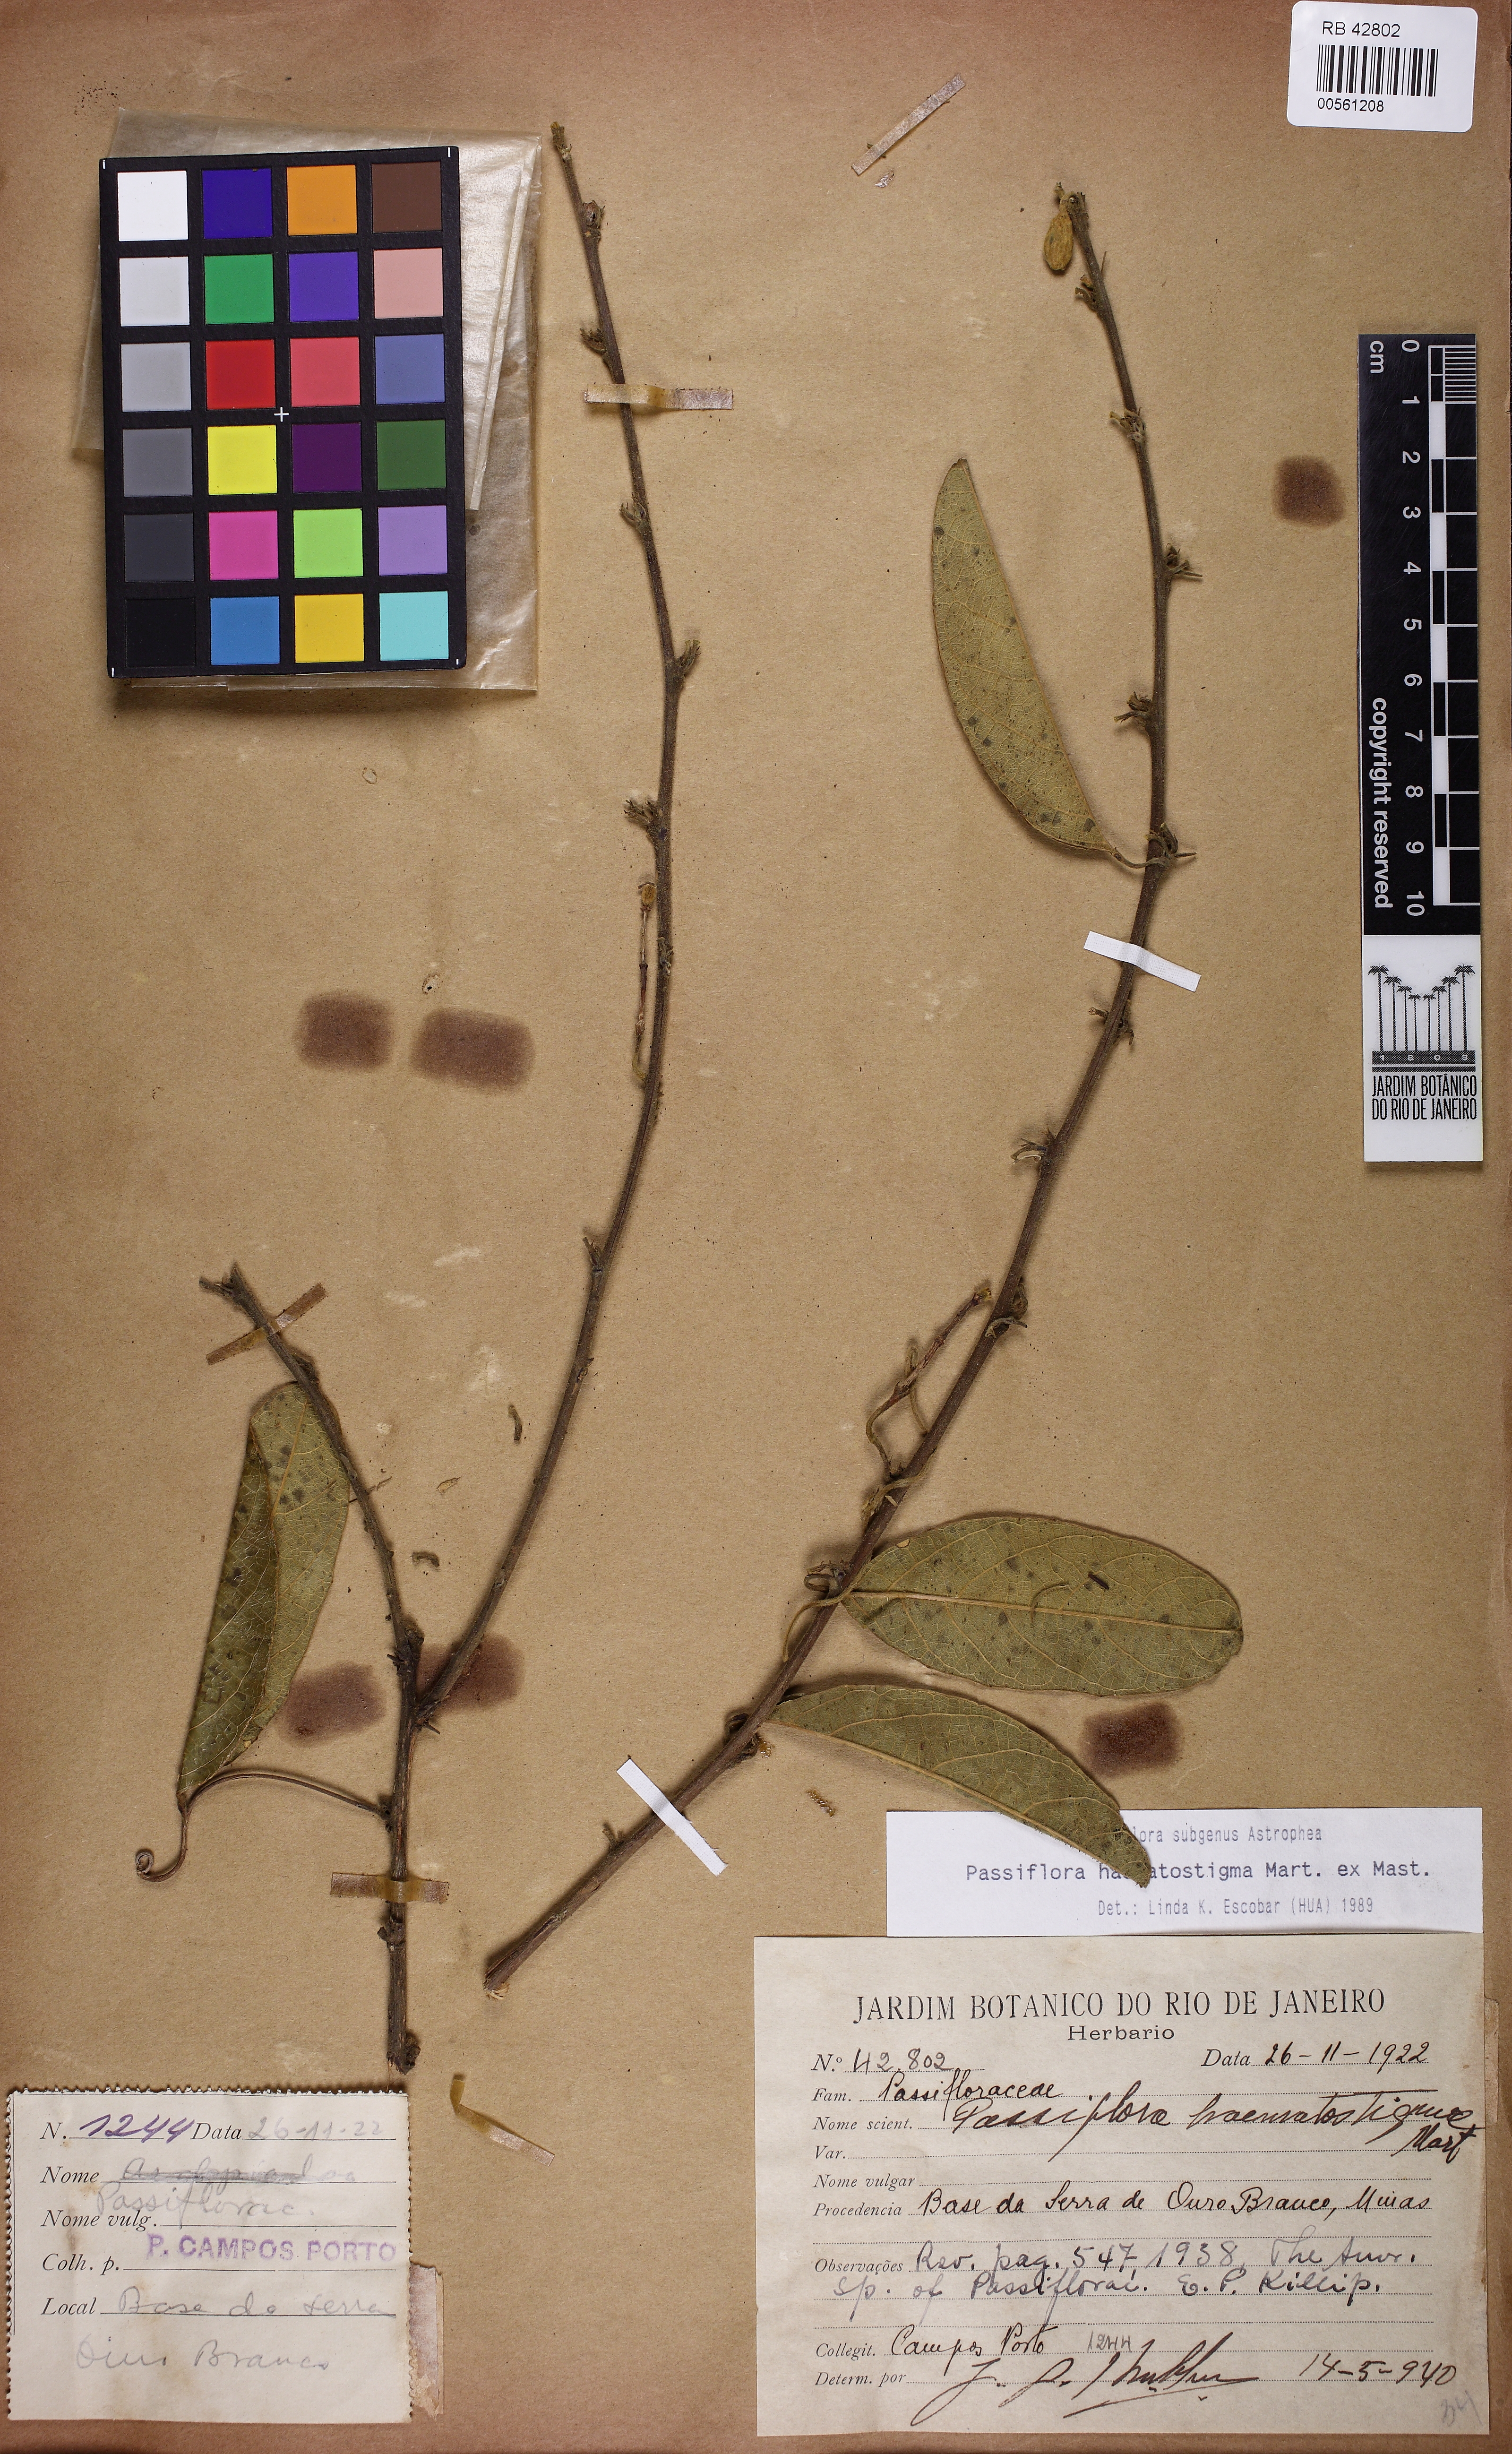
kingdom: Plantae
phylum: Tracheophyta
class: Magnoliopsida
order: Malpighiales
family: Passifloraceae
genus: Passiflora
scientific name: Passiflora haematostigma
